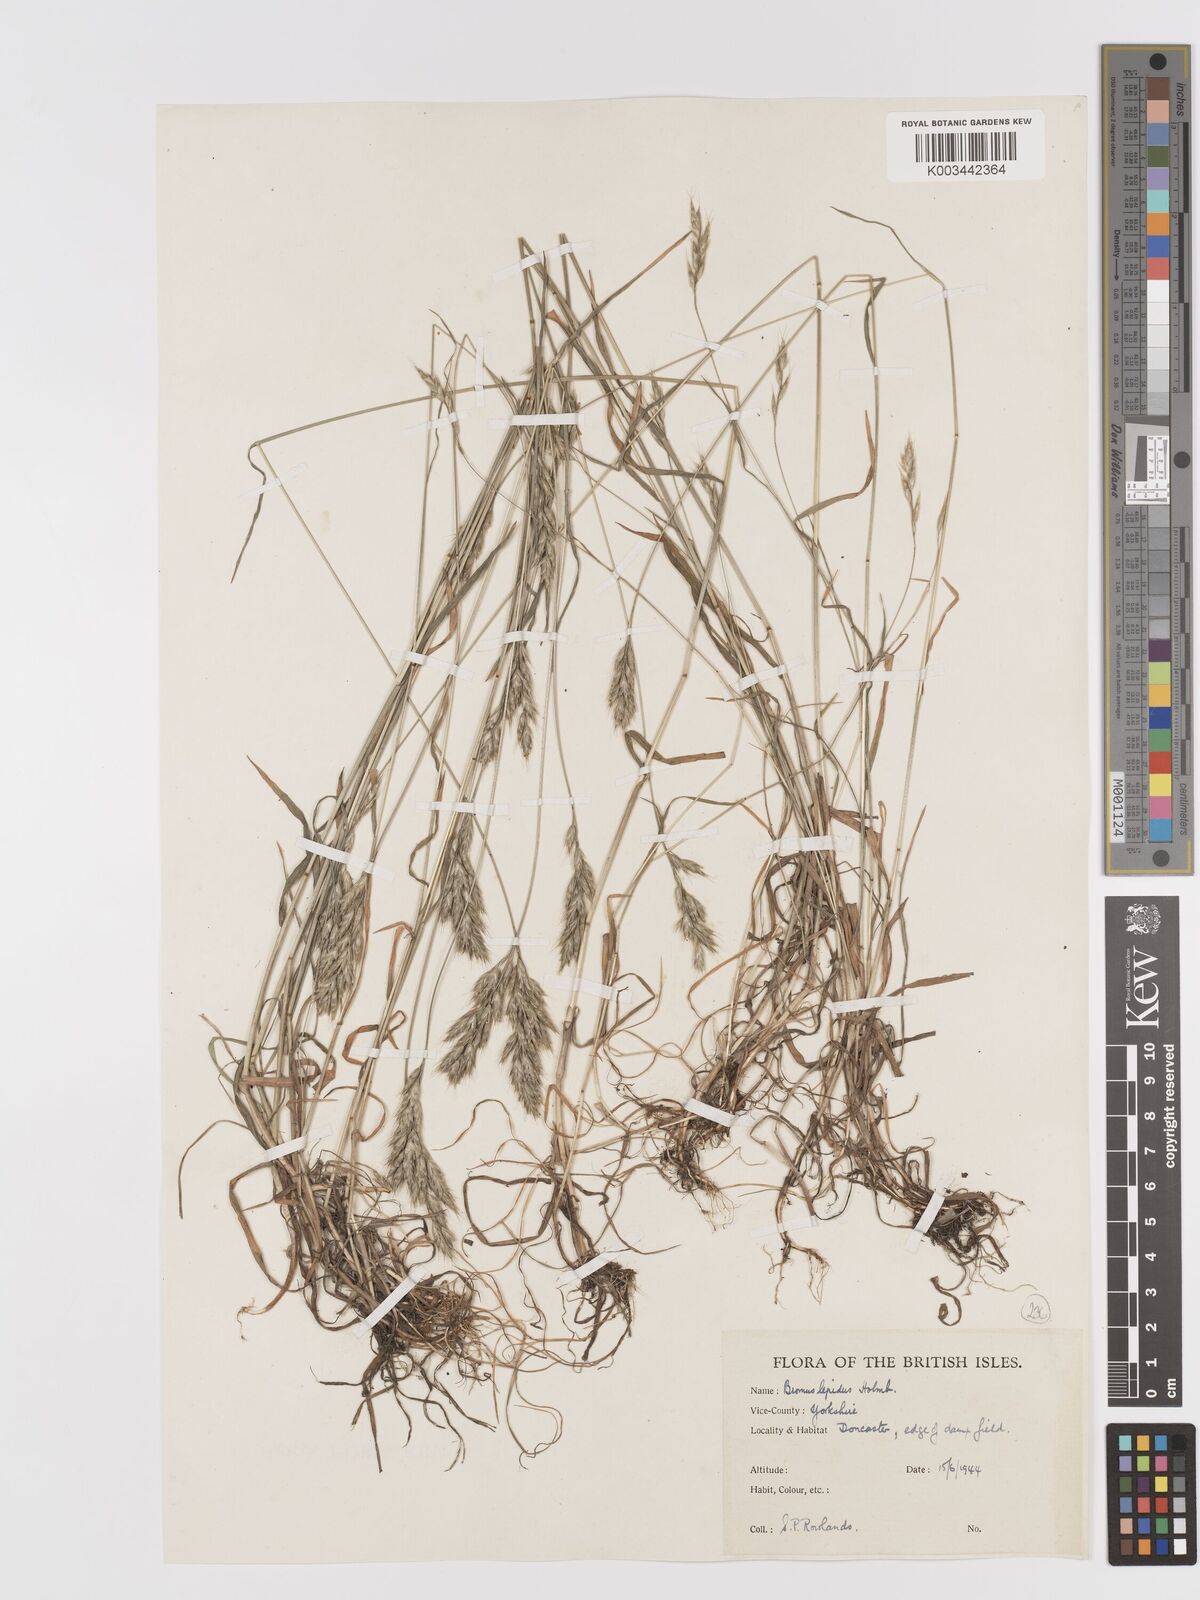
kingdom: Plantae
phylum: Tracheophyta
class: Liliopsida
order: Poales
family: Poaceae
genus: Bromus
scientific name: Bromus lepidus
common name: Slender soft-brome
